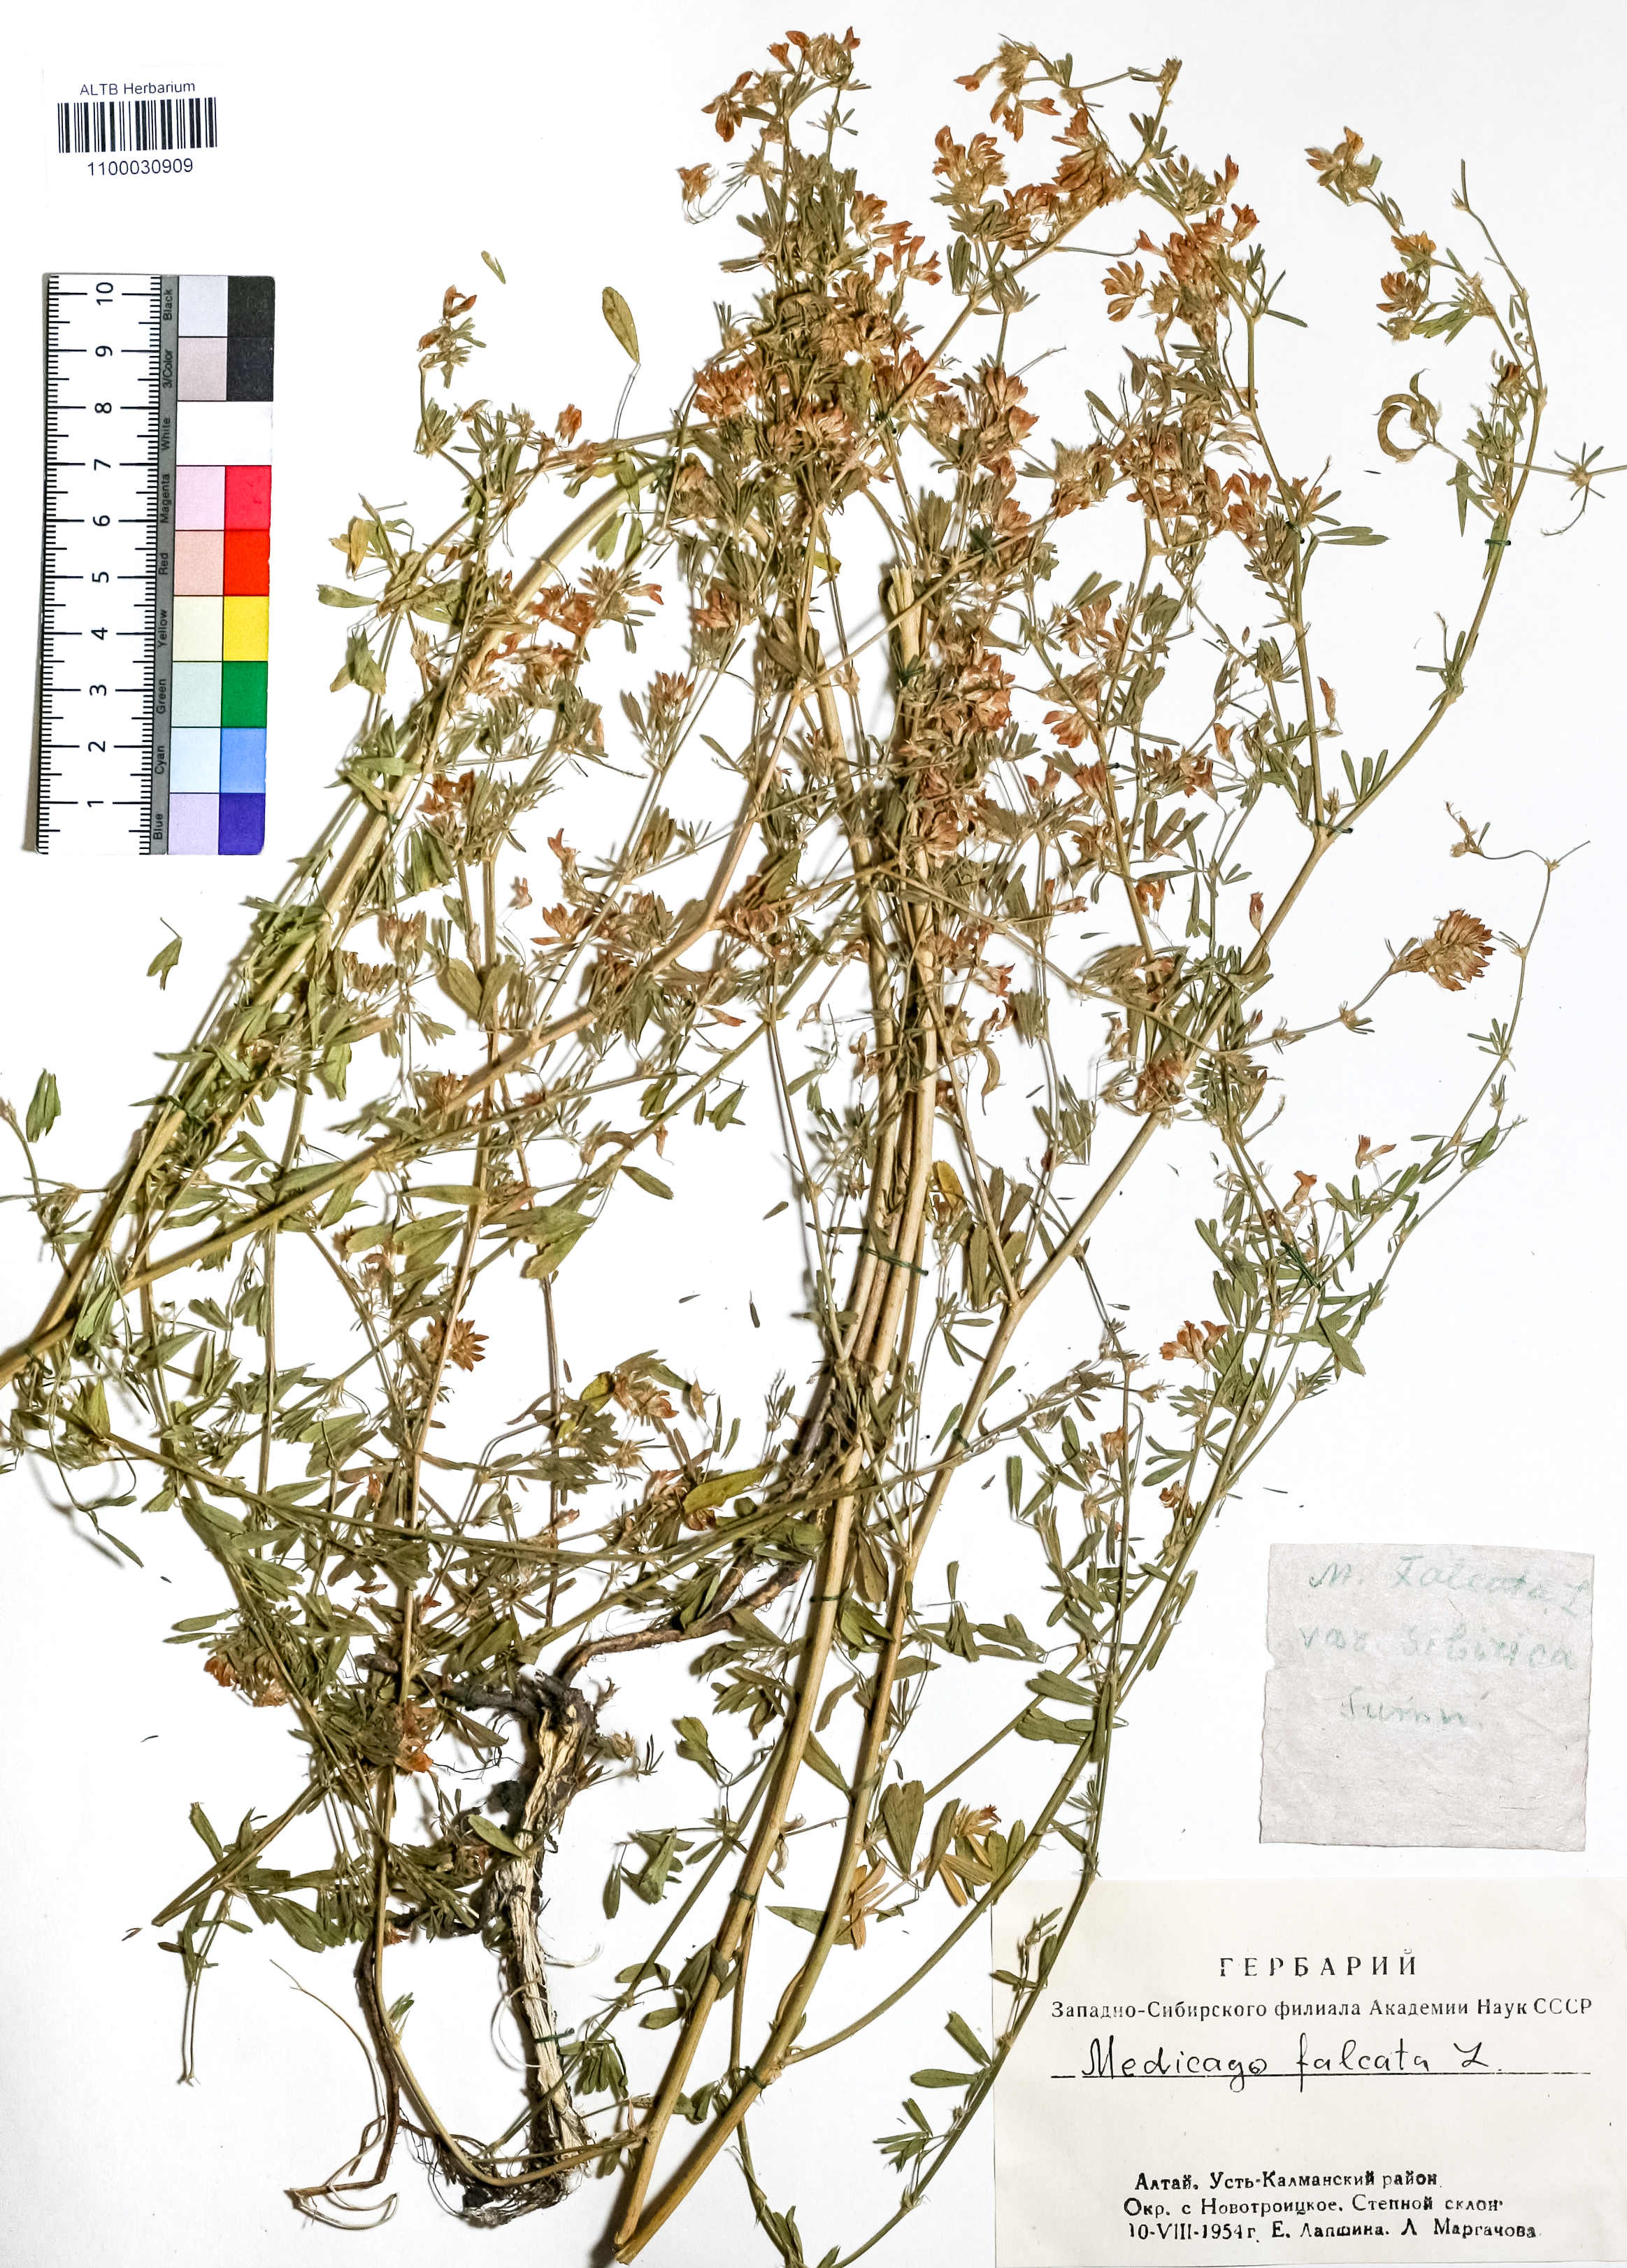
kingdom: Plantae
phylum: Tracheophyta
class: Magnoliopsida
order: Fabales
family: Fabaceae
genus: Medicago
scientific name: Medicago falcata
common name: Sickle medick
